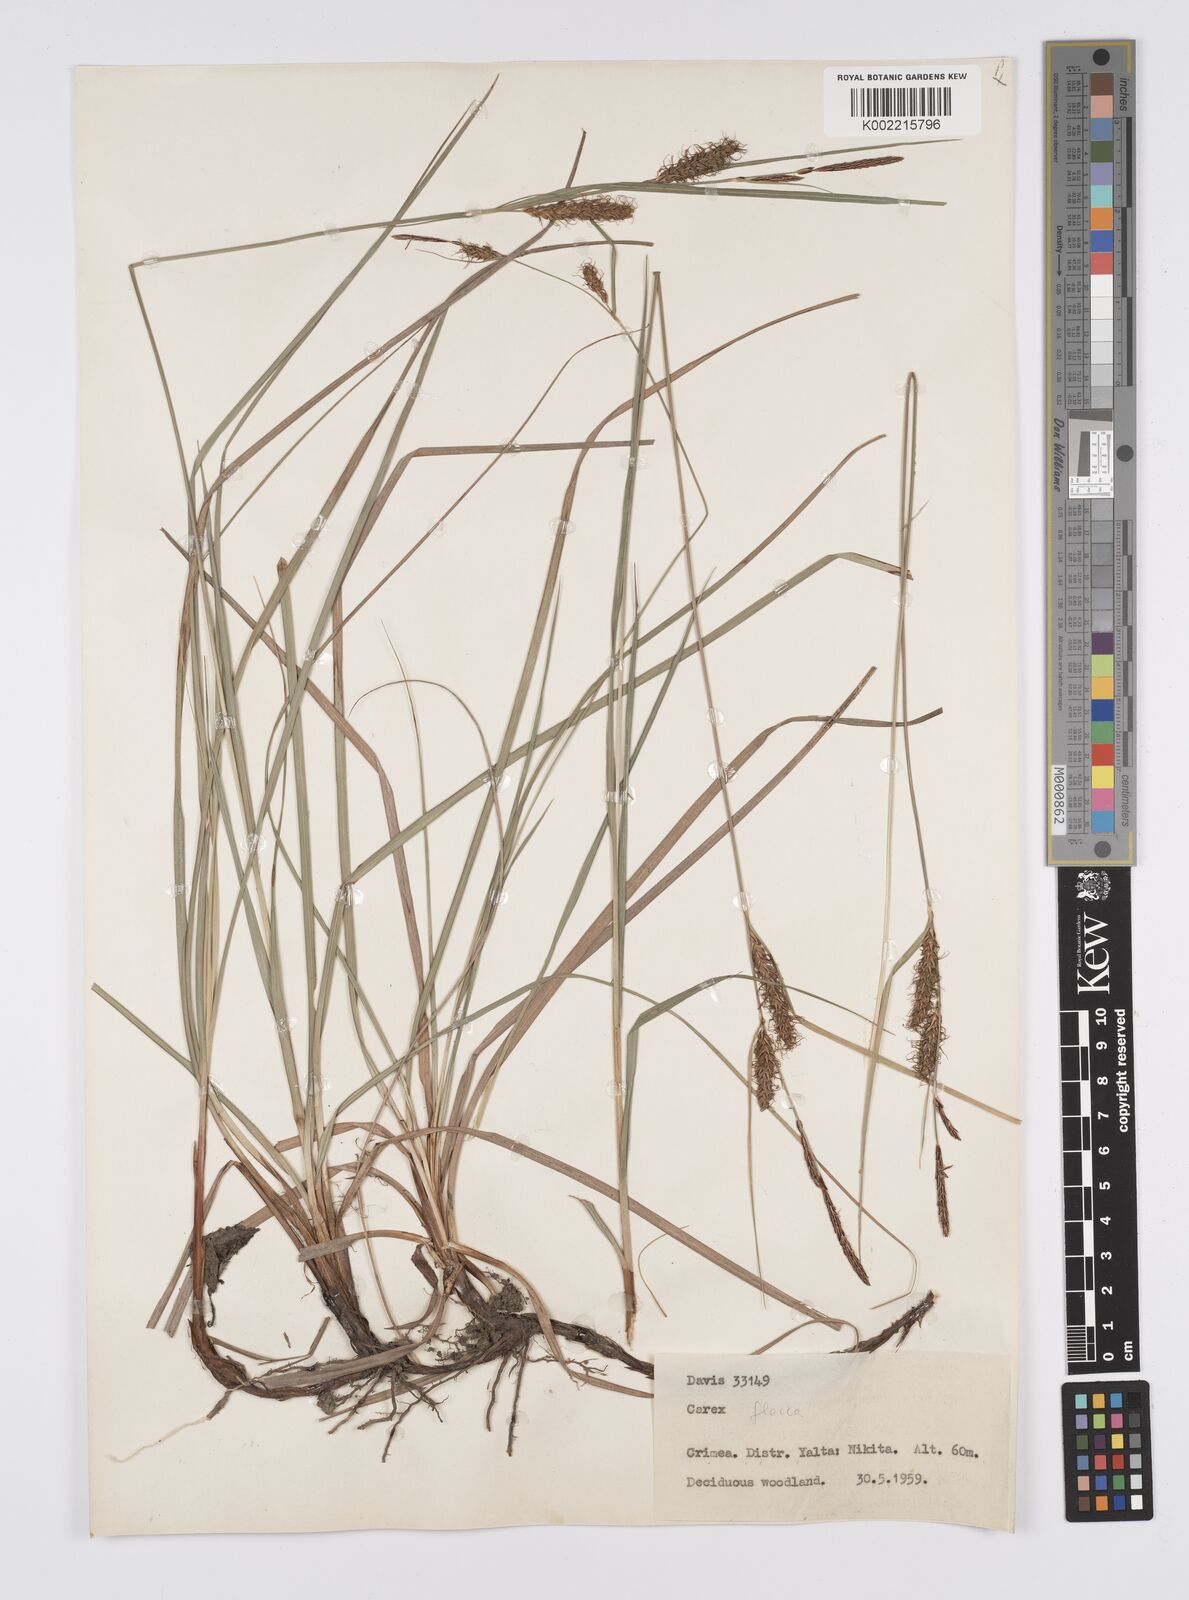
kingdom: Plantae
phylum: Tracheophyta
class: Liliopsida
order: Poales
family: Cyperaceae
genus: Carex
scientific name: Carex
